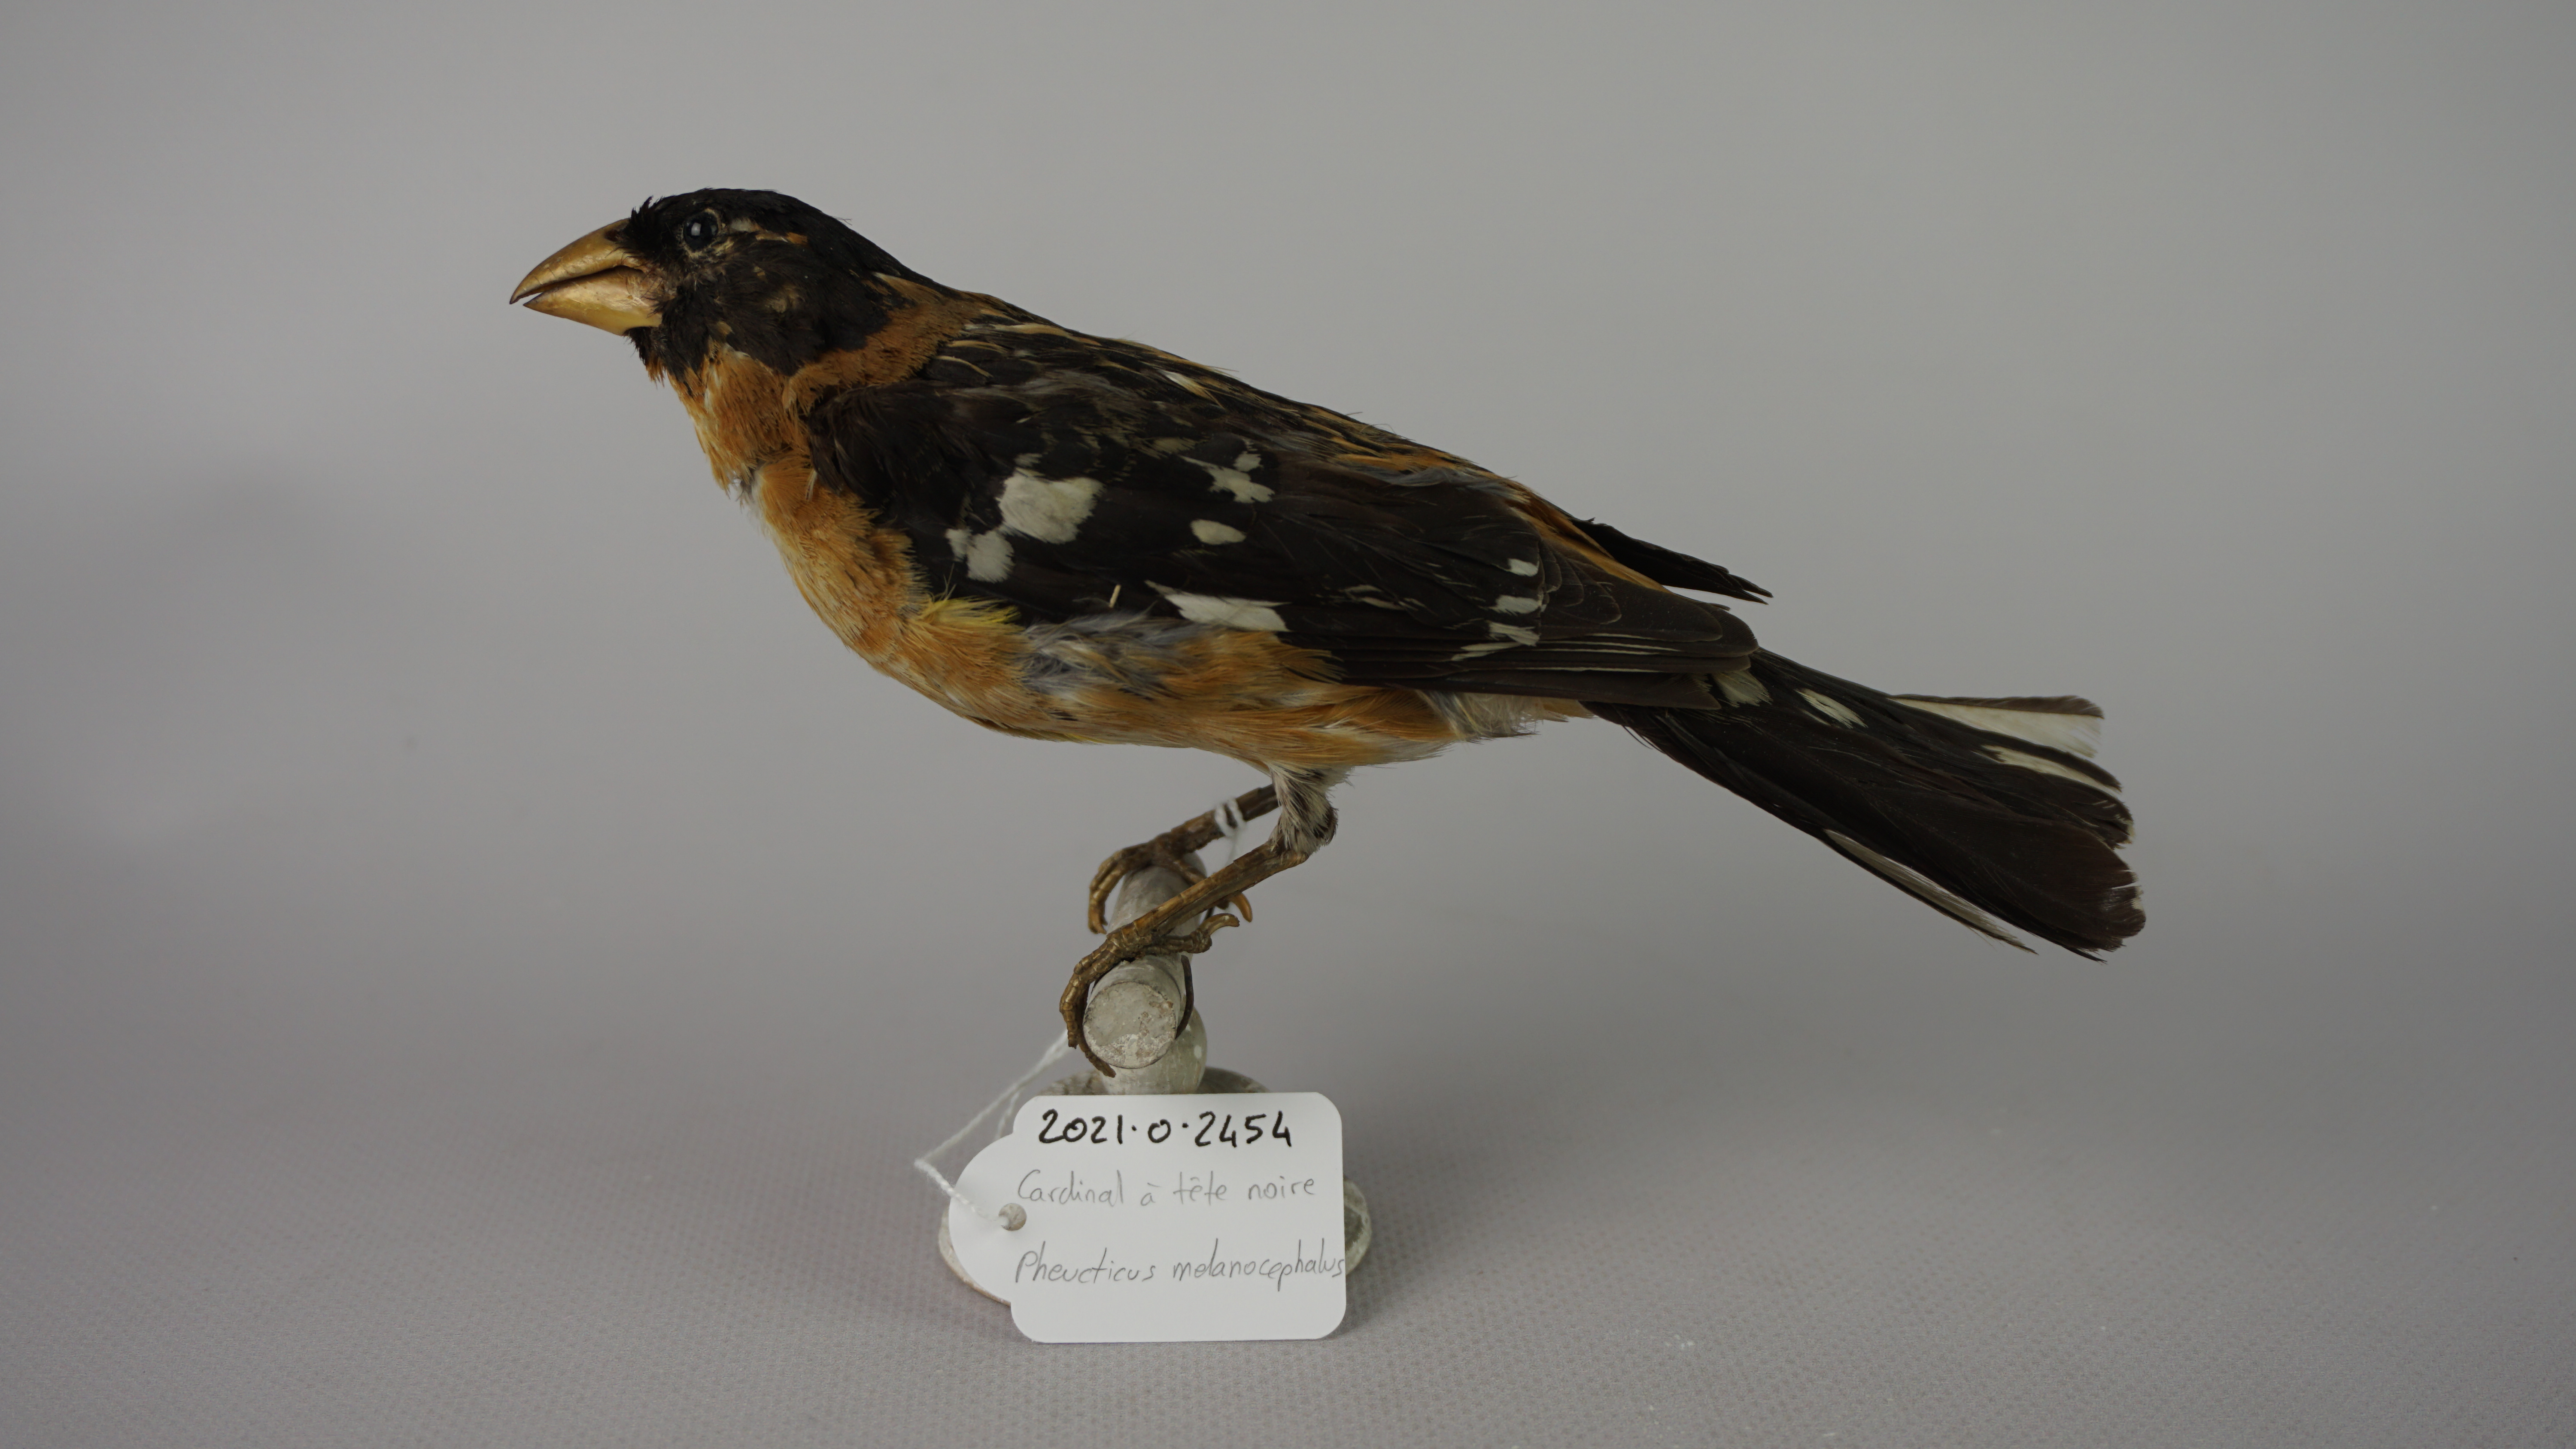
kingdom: Animalia
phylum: Chordata
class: Aves
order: Passeriformes
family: Cardinalidae
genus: Pheucticus
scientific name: Pheucticus melanocephalus
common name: Black-headed grosbeak
